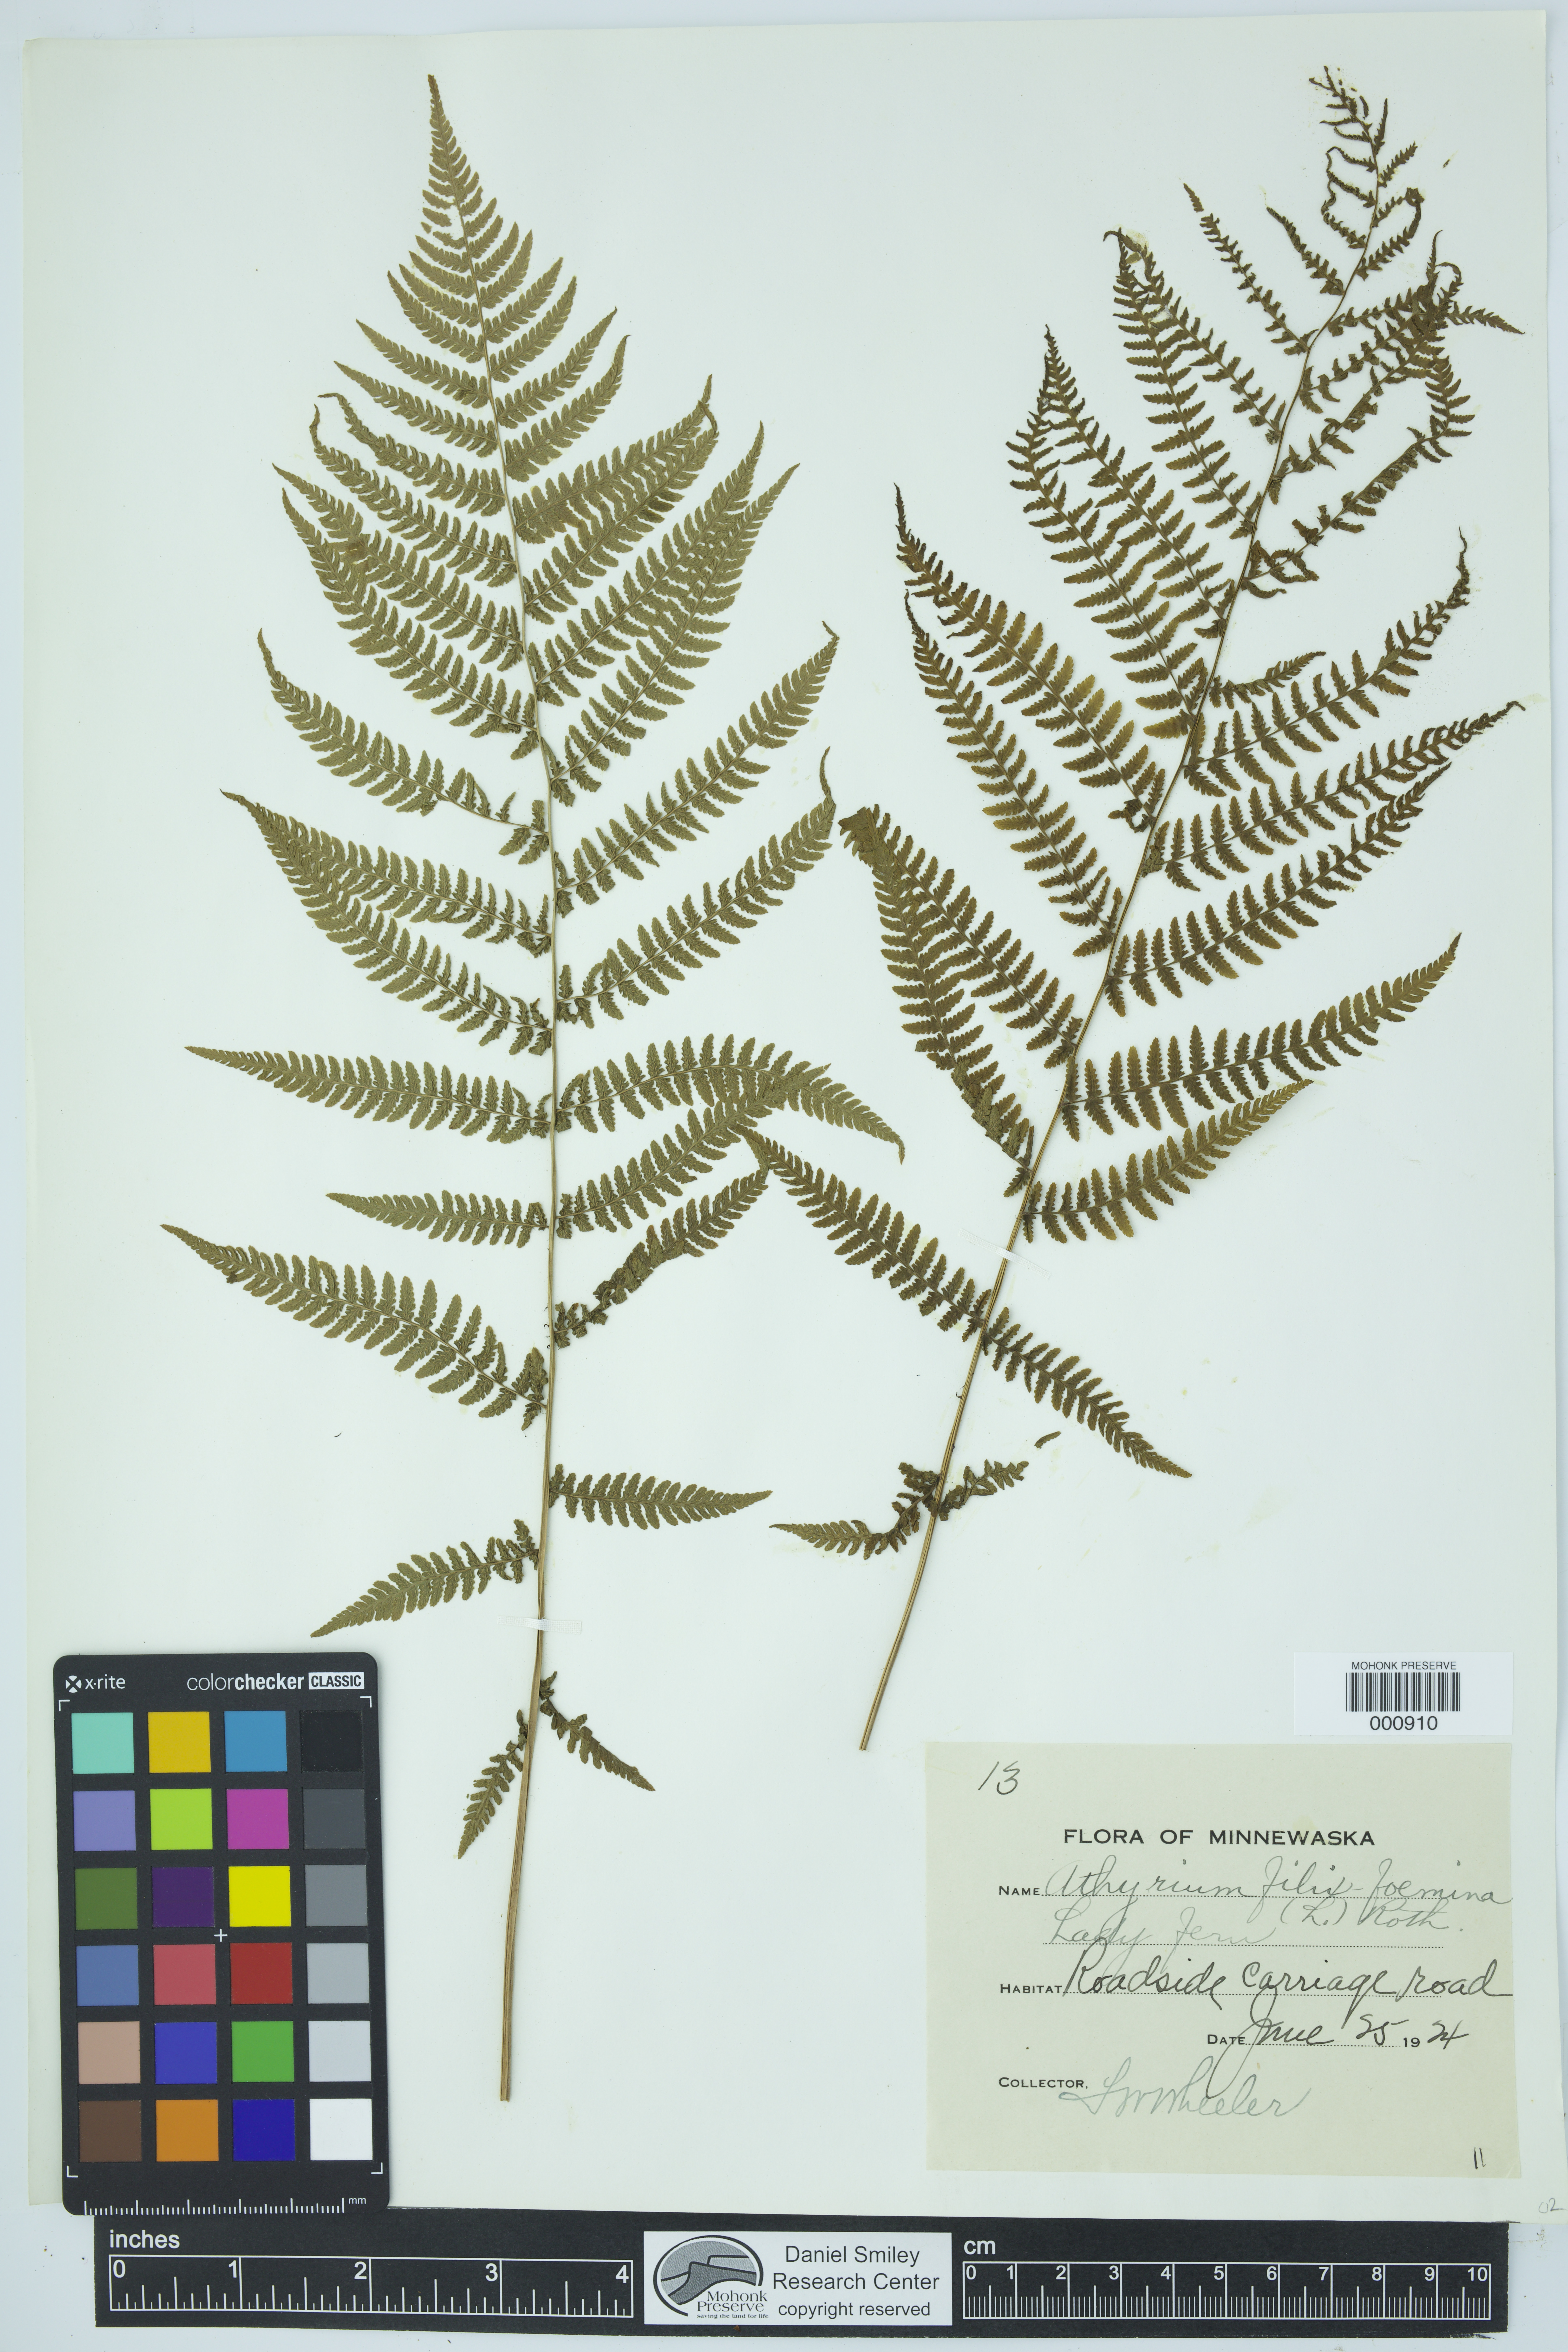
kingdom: Plantae
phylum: Tracheophyta
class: Polypodiopsida
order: Polypodiales
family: Athyriaceae
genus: Athyrium
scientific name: Athyrium filix-femina
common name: Lady fern
